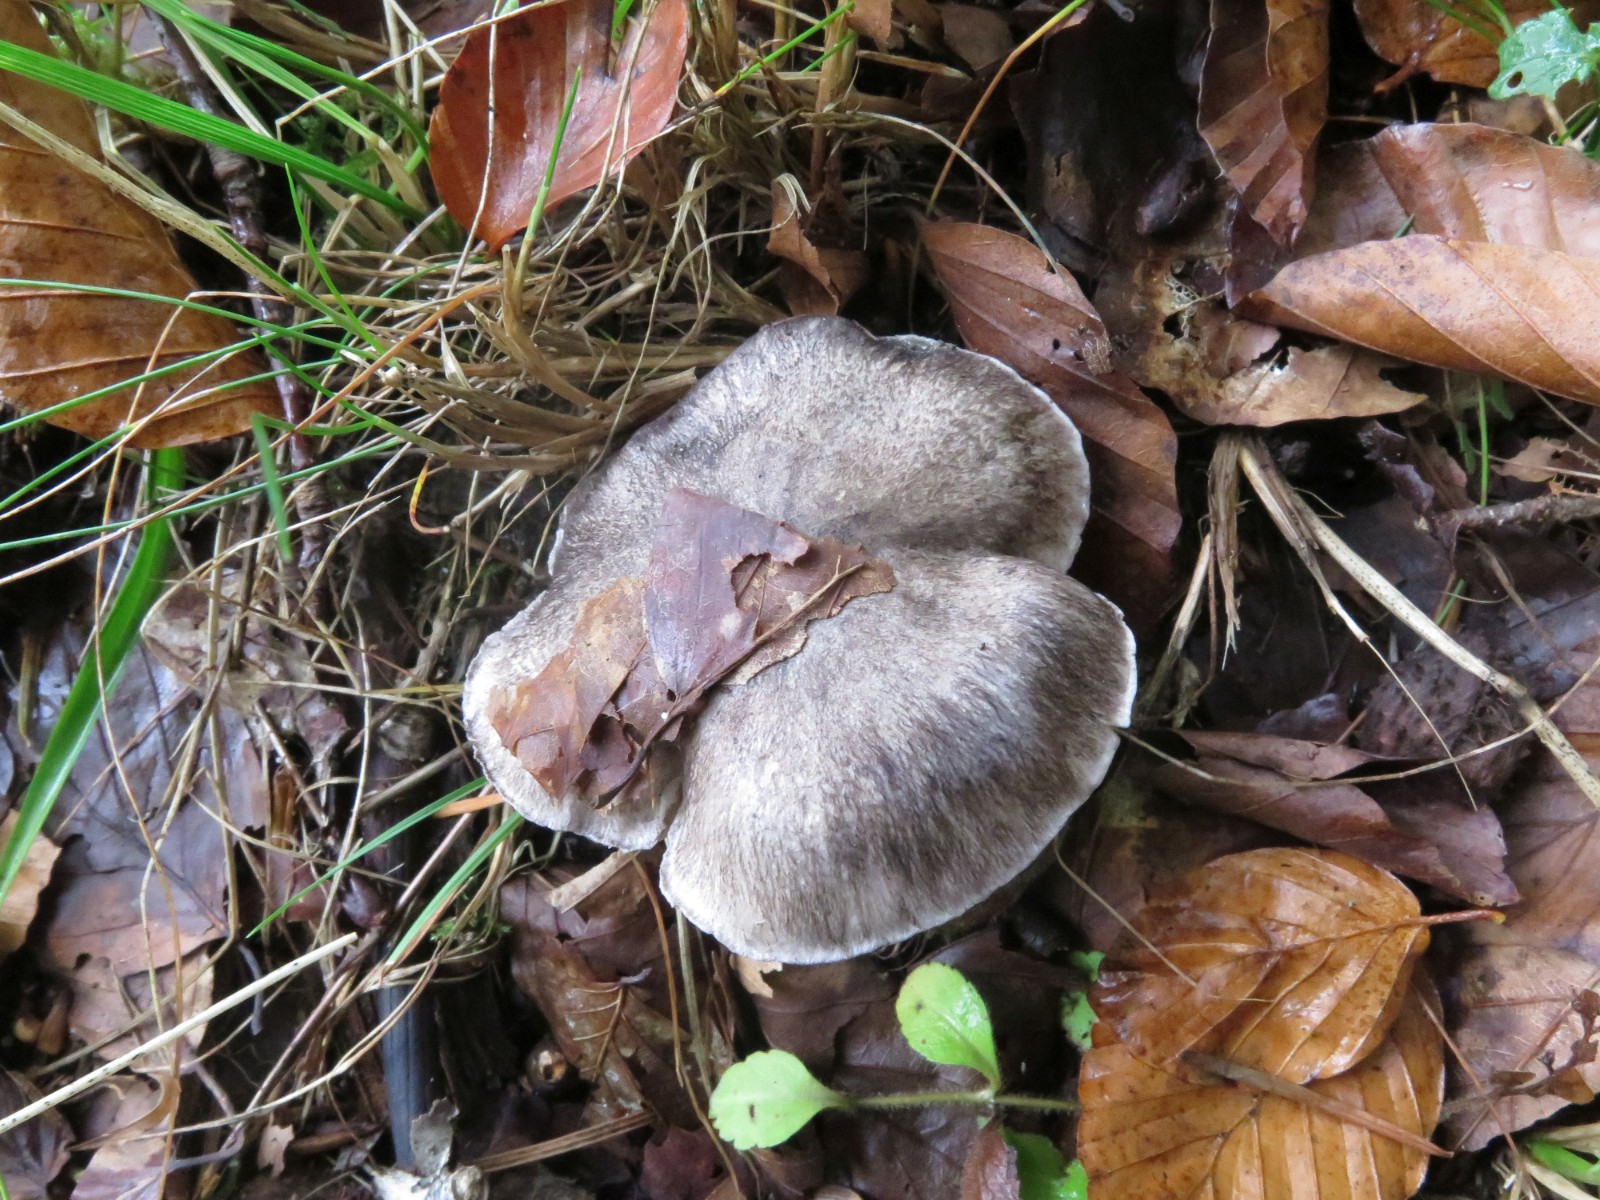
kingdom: Fungi
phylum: Basidiomycota
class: Agaricomycetes
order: Agaricales
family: Tricholomataceae
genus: Tricholoma
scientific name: Tricholoma sciodes
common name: stribet ridderhat
